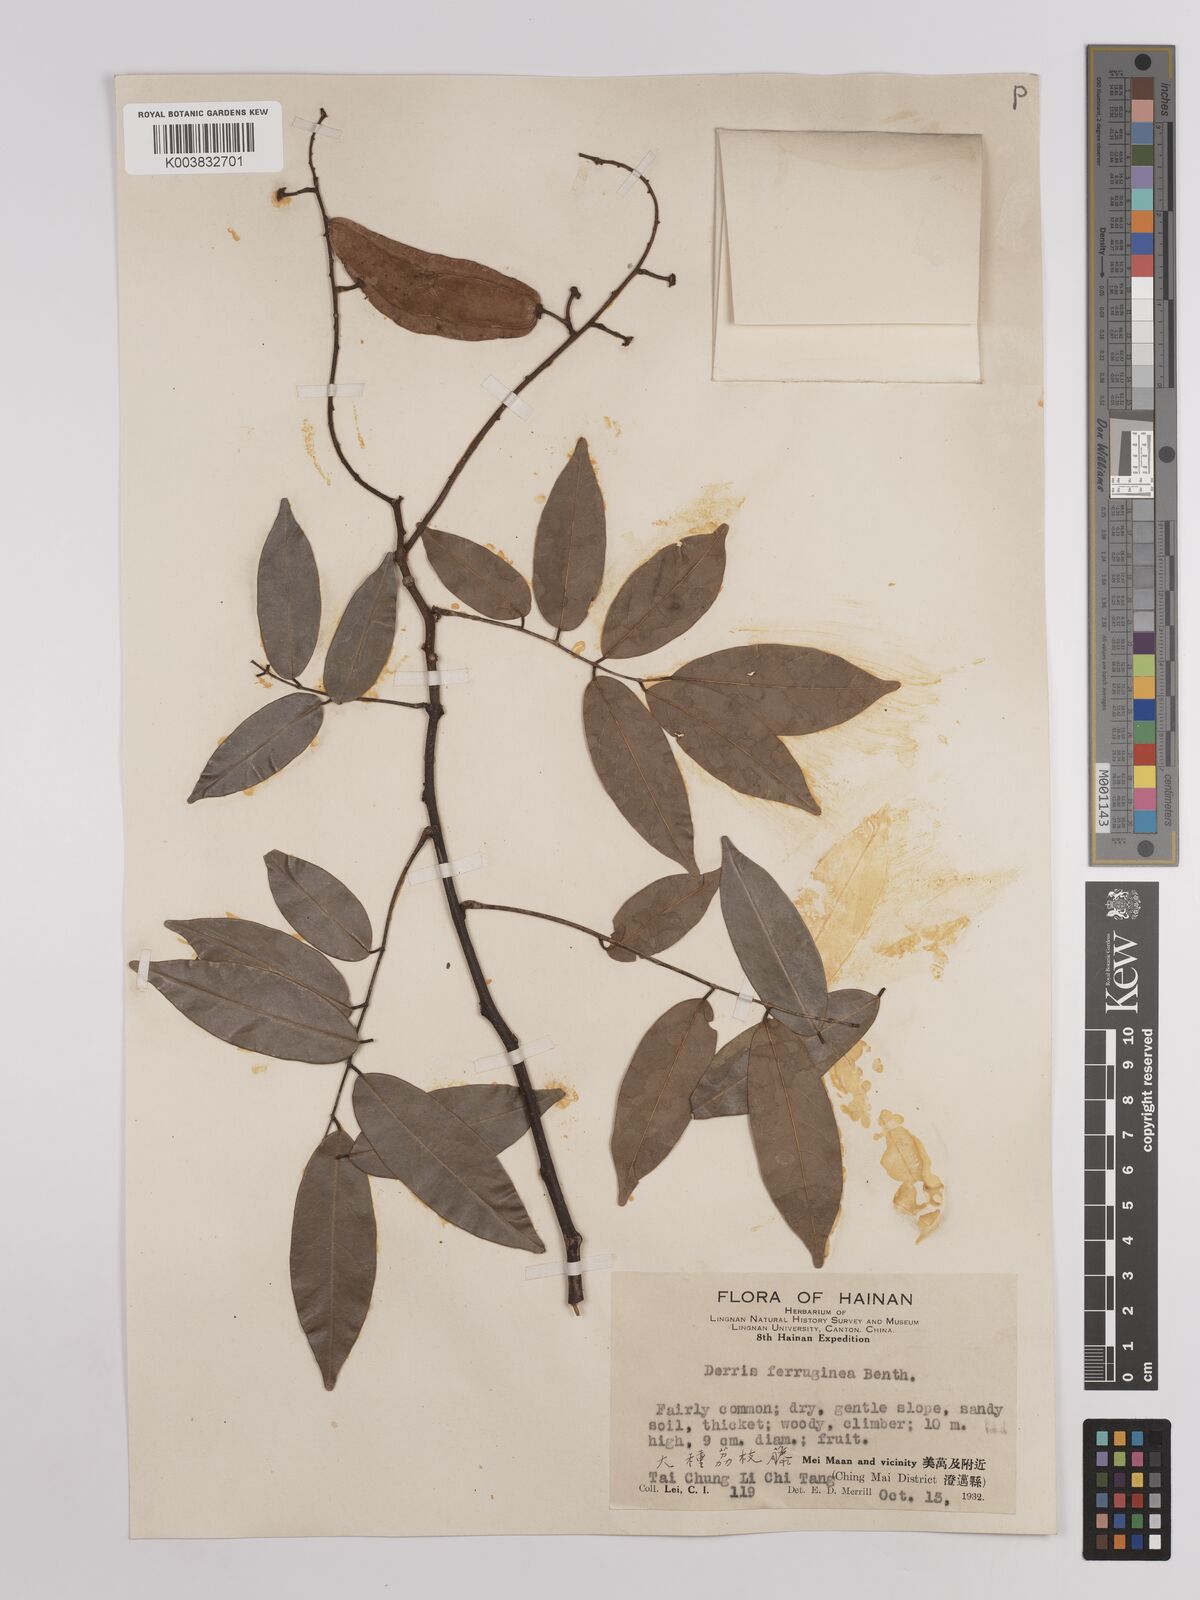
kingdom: Plantae
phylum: Tracheophyta
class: Magnoliopsida
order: Fabales
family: Fabaceae
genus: Derris
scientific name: Derris ferruginea
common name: Indian tubaroot
